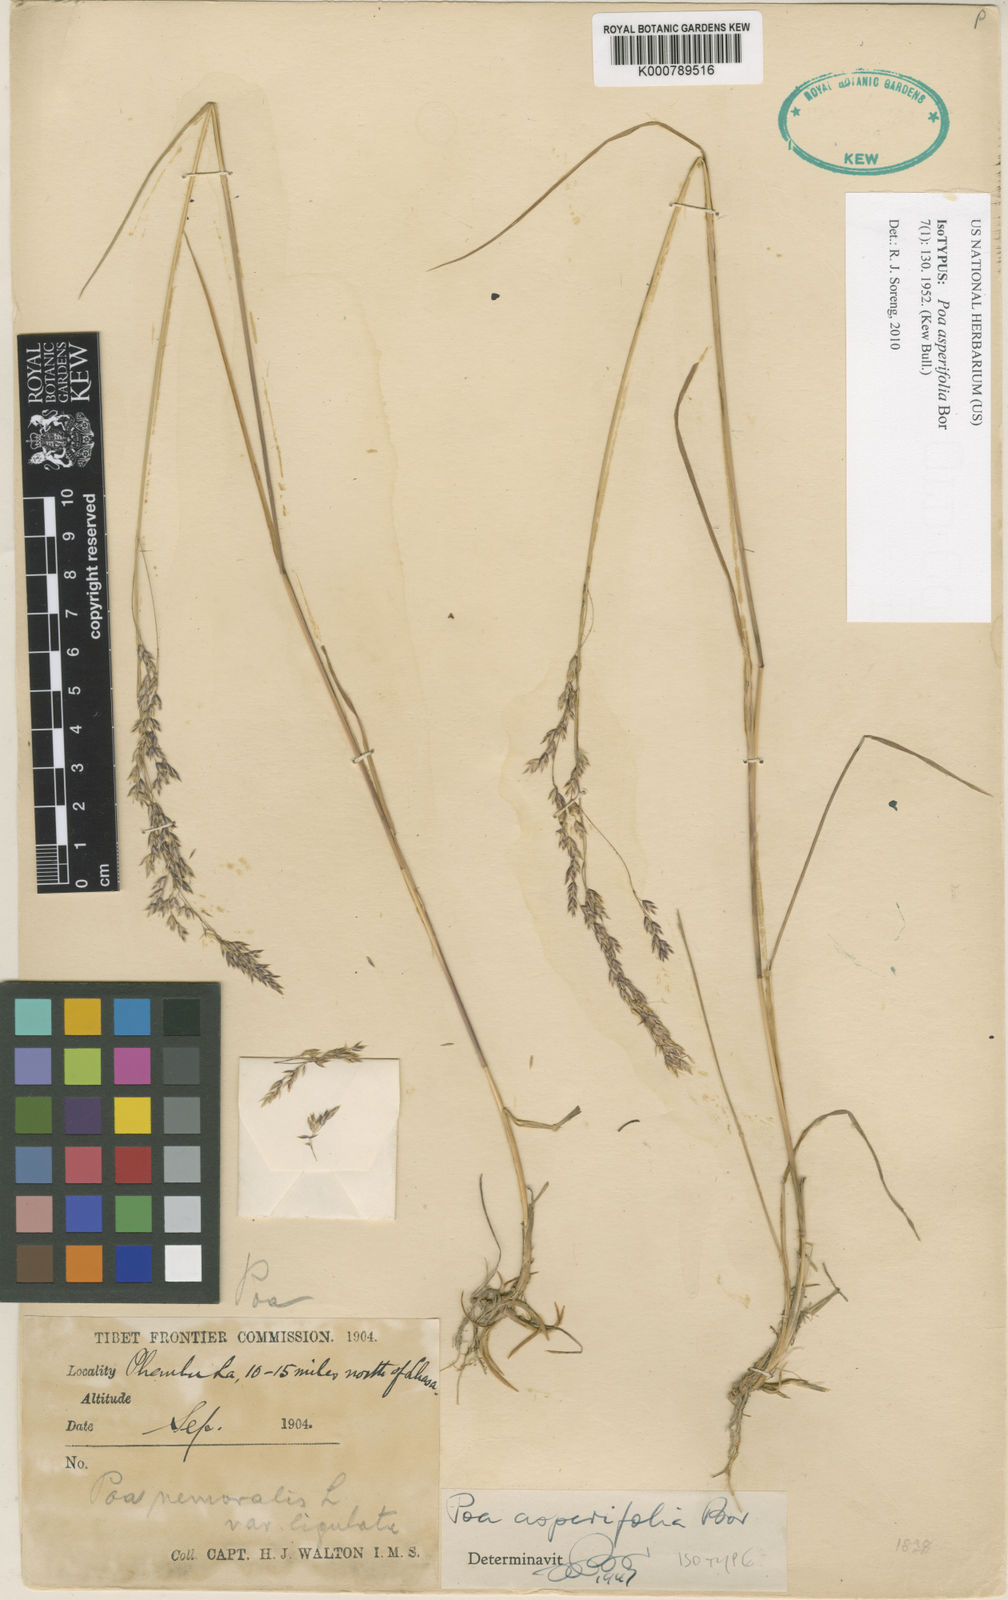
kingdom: Plantae
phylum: Tracheophyta
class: Liliopsida
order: Poales
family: Poaceae
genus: Poa
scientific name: Poa asperifolia
